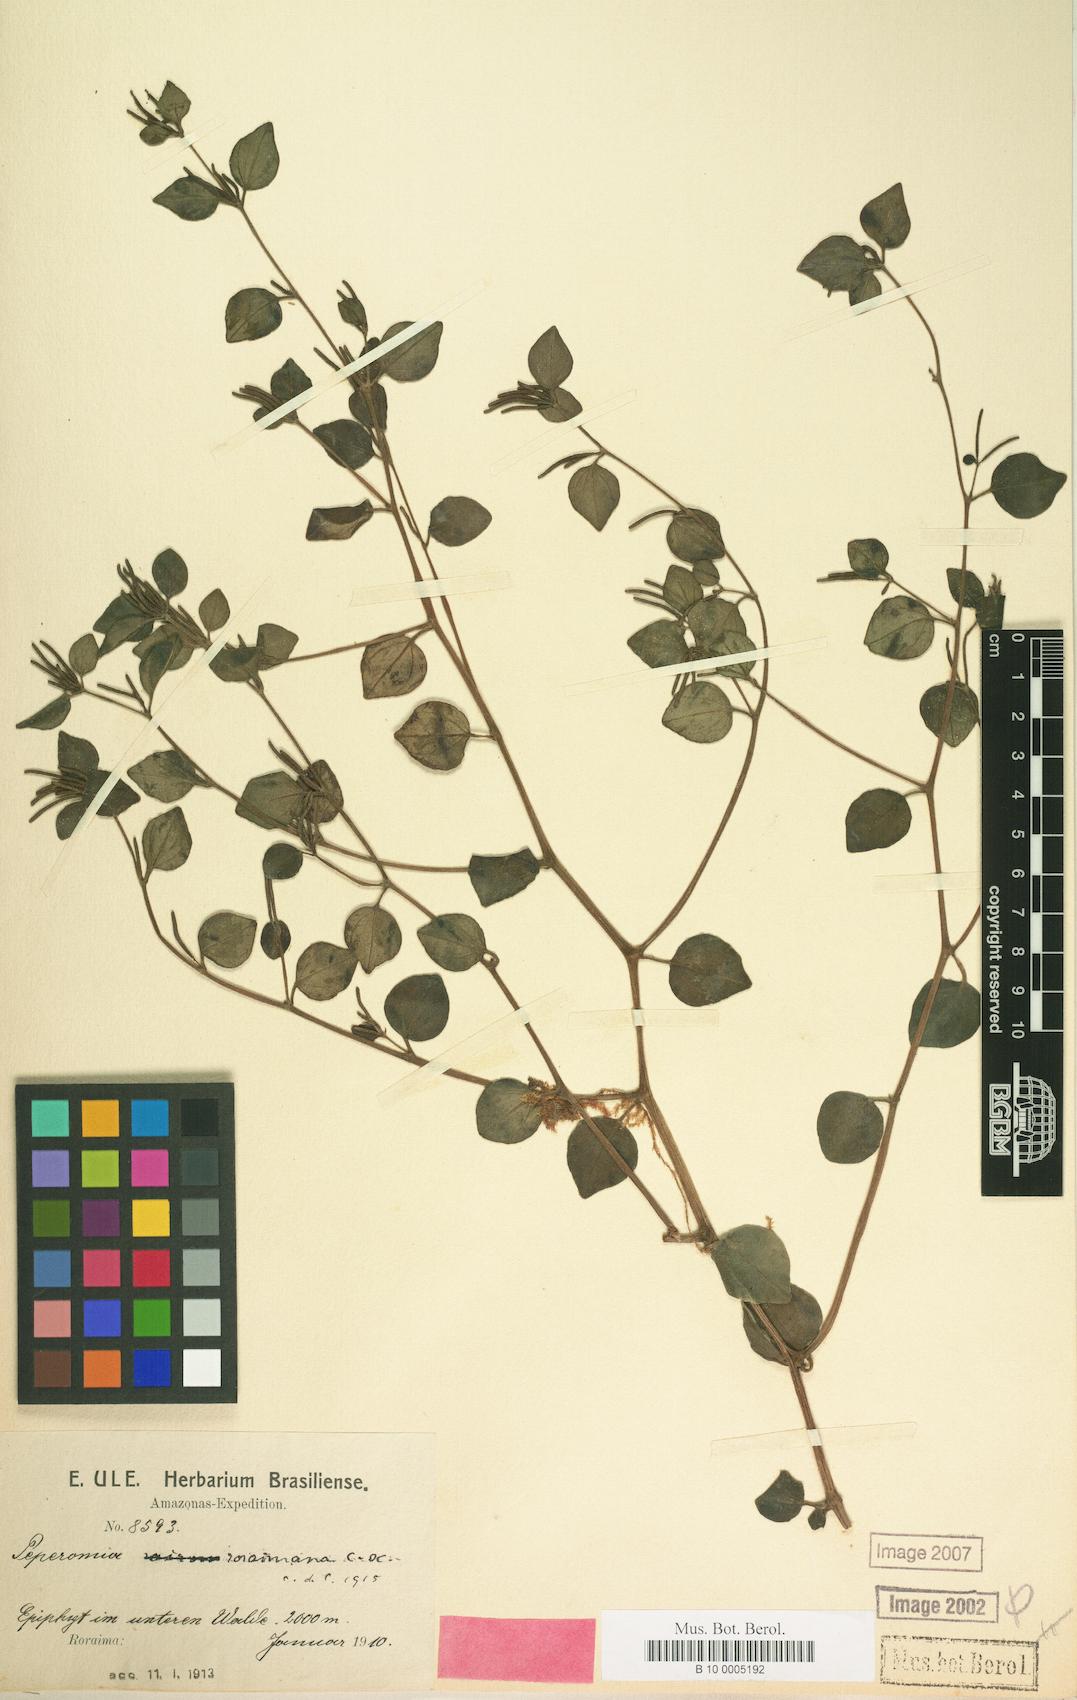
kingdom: Plantae
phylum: Tracheophyta
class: Magnoliopsida
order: Piperales
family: Piperaceae
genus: Peperomia
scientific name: Peperomia trinervula
